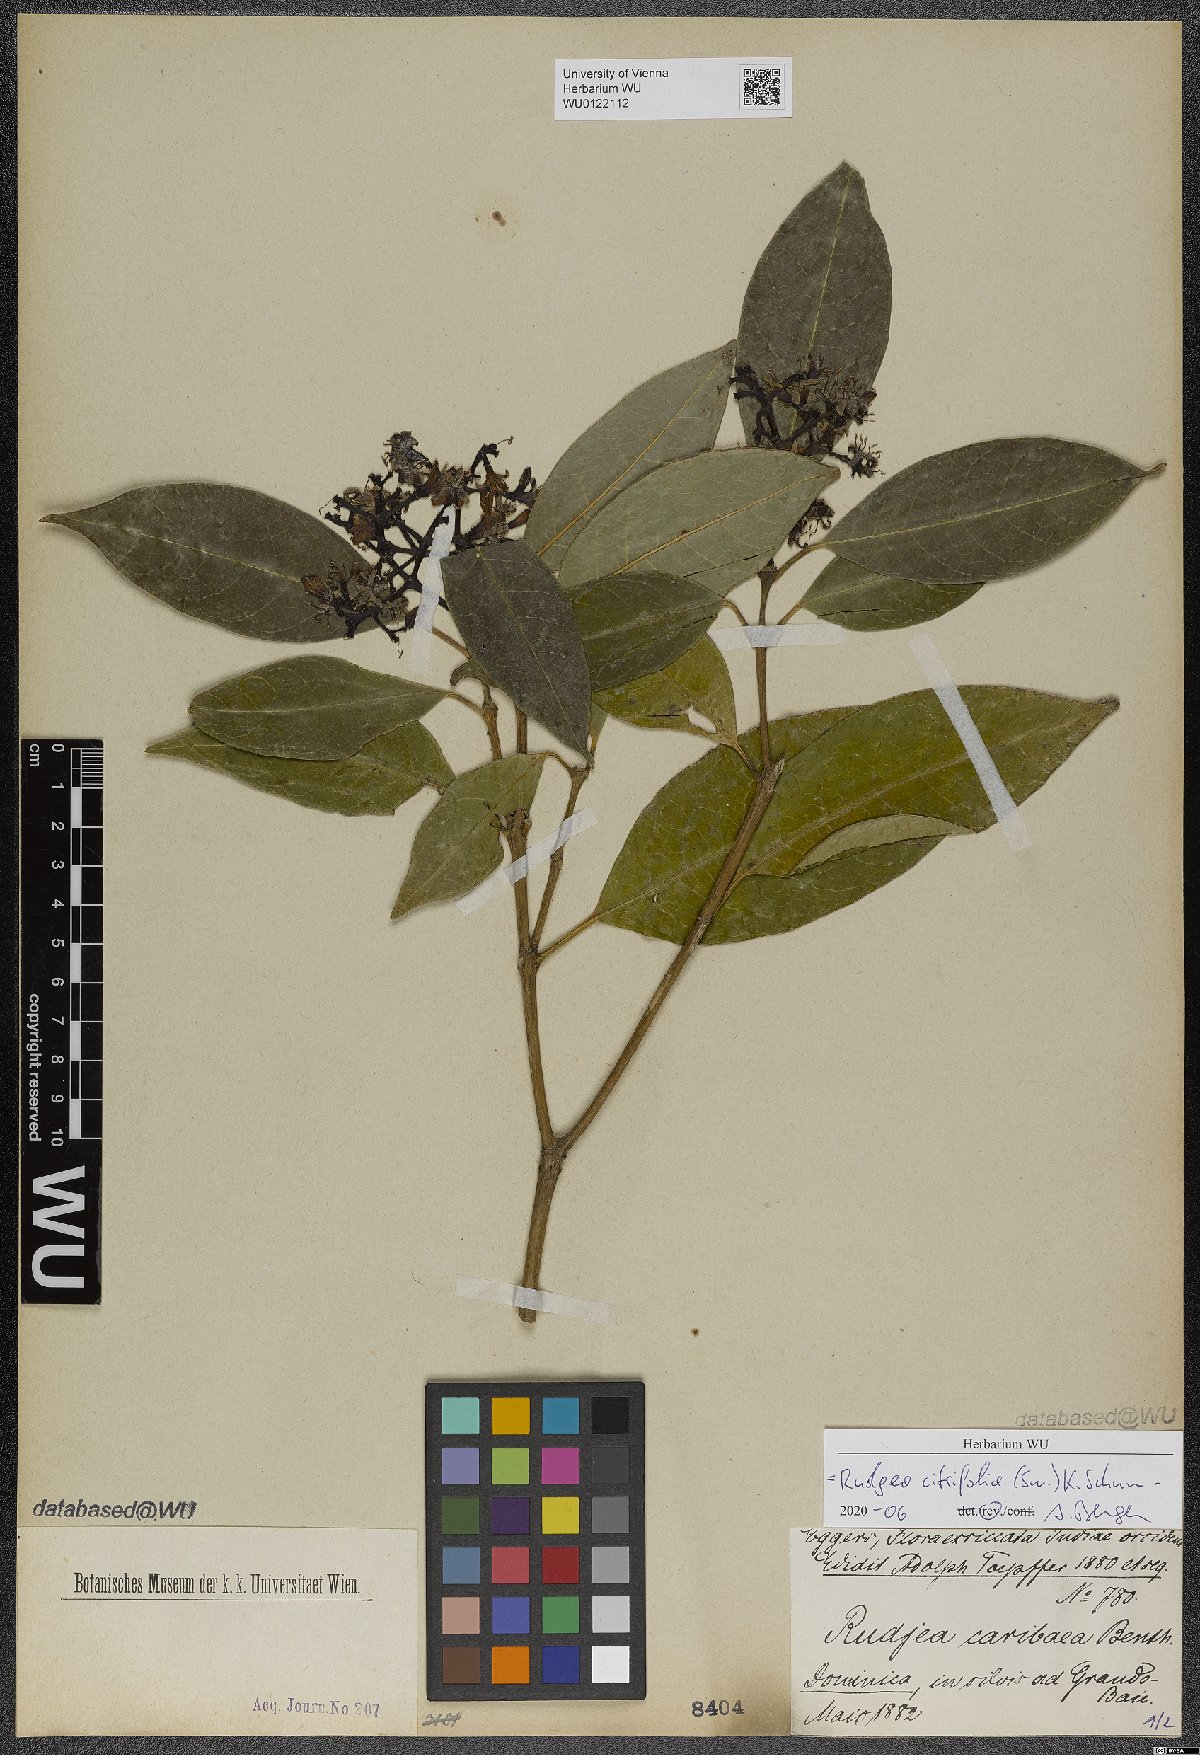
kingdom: Plantae
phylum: Tracheophyta
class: Magnoliopsida
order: Gentianales
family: Rubiaceae
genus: Rudgea
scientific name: Rudgea citrifolia
